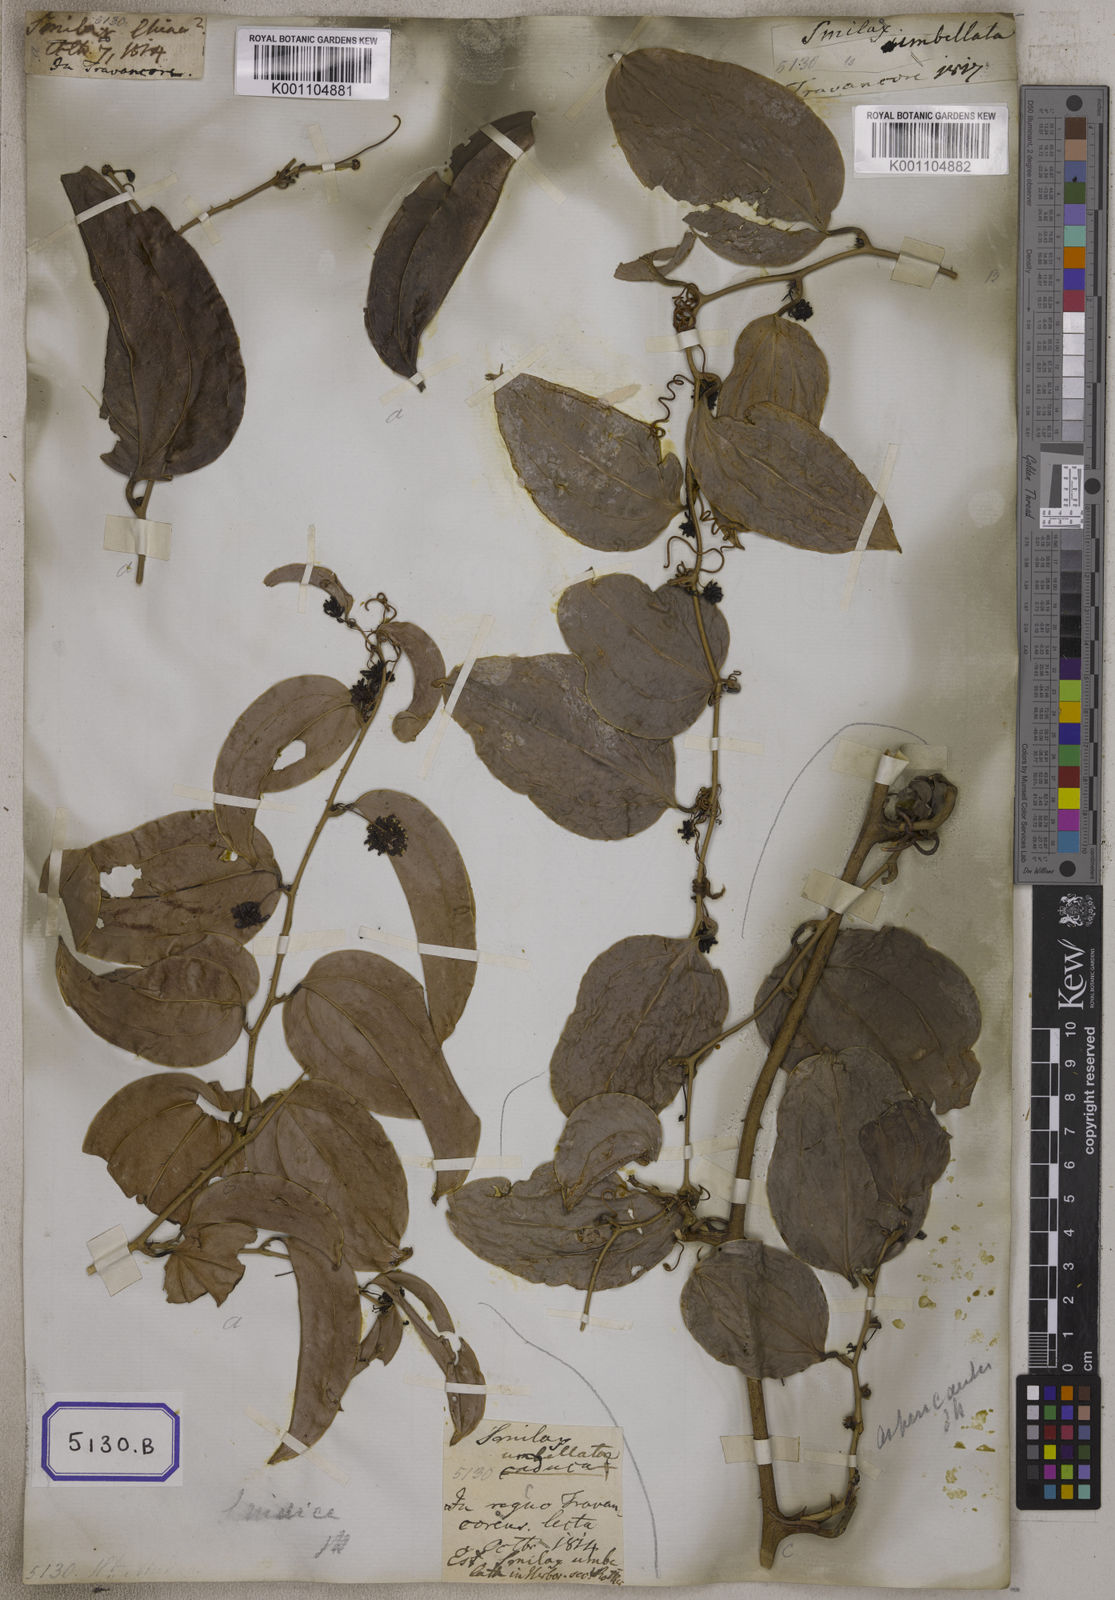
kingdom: Plantae
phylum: Tracheophyta
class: Liliopsida
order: Liliales
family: Smilacaceae
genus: Smilax
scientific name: Smilax zeylanica
